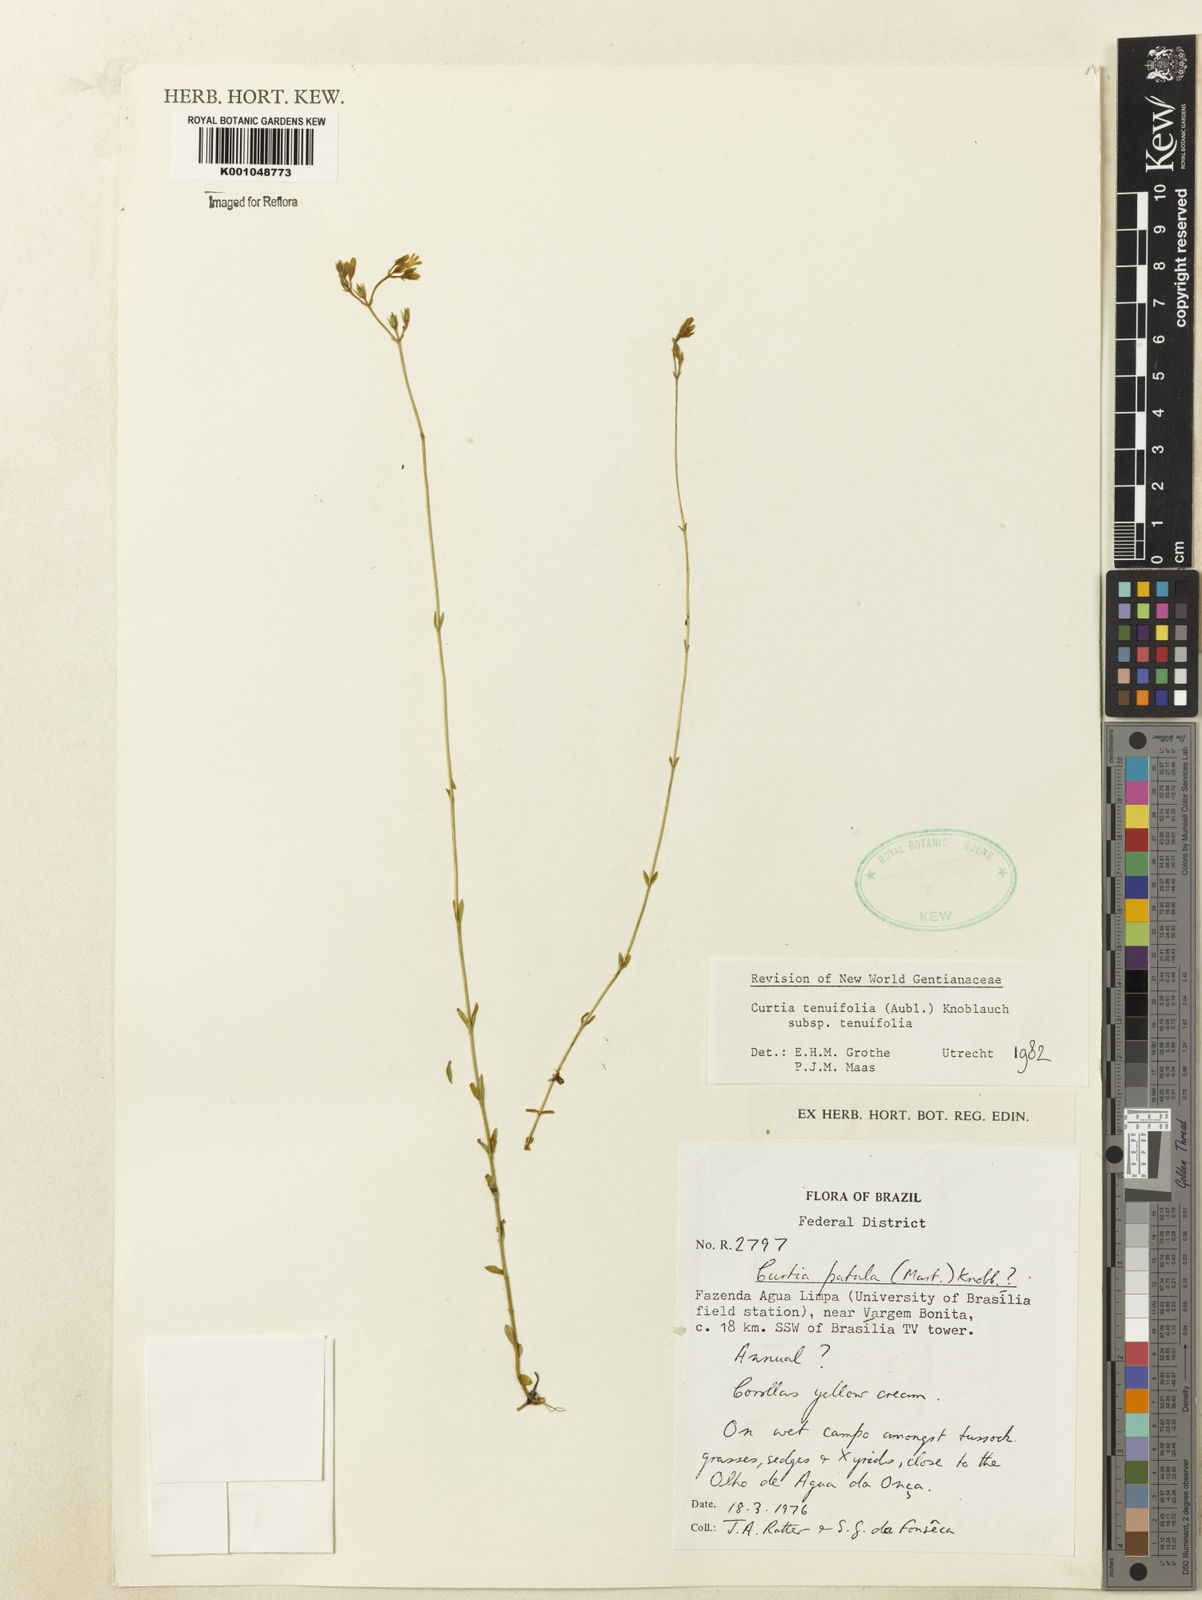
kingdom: Plantae
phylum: Tracheophyta
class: Magnoliopsida
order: Gentianales
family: Gentianaceae
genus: Curtia
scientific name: Curtia tenuifolia
